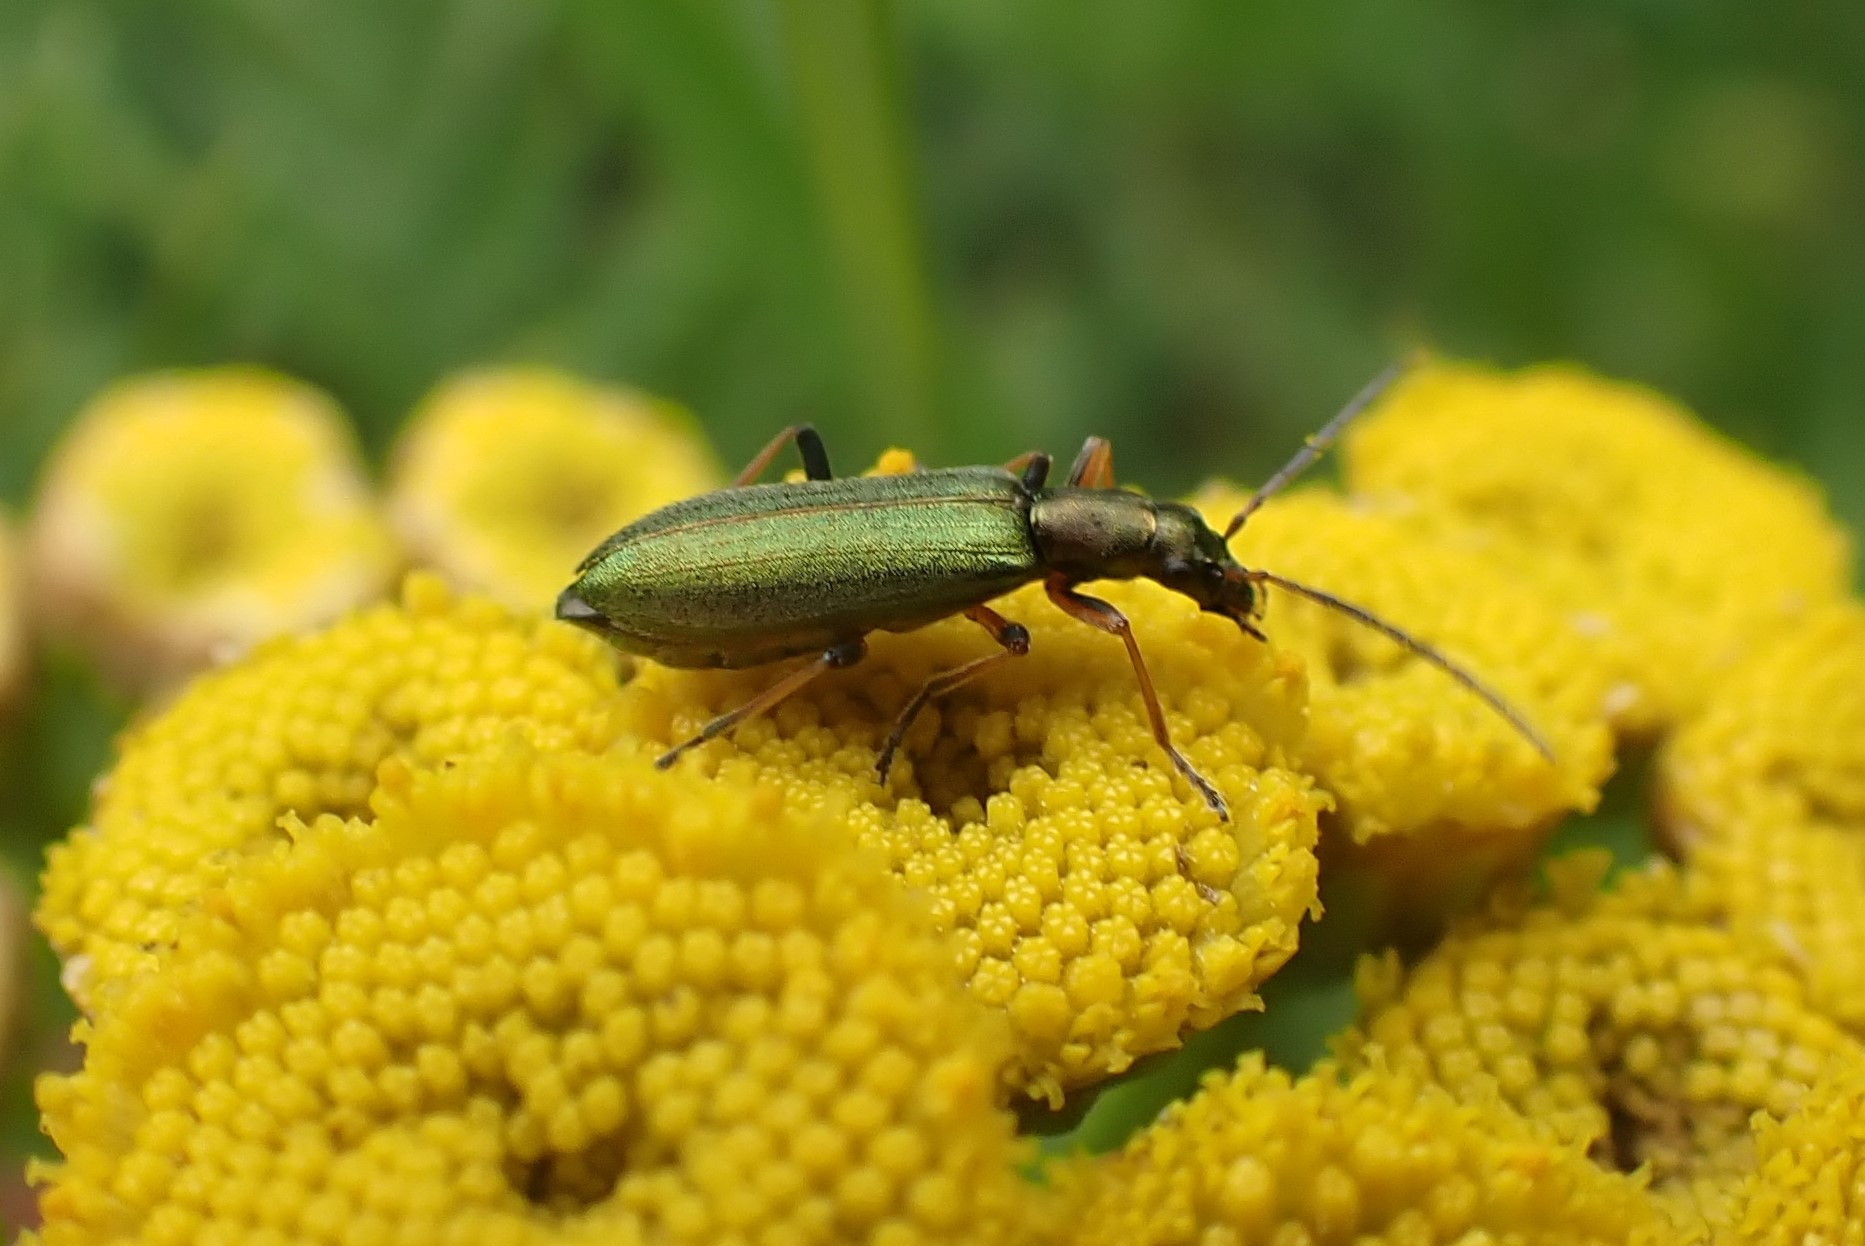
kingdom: Animalia
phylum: Arthropoda
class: Insecta
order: Coleoptera
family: Oedemeridae
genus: Chrysanthia
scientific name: Chrysanthia geniculata
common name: Grøn solbille
